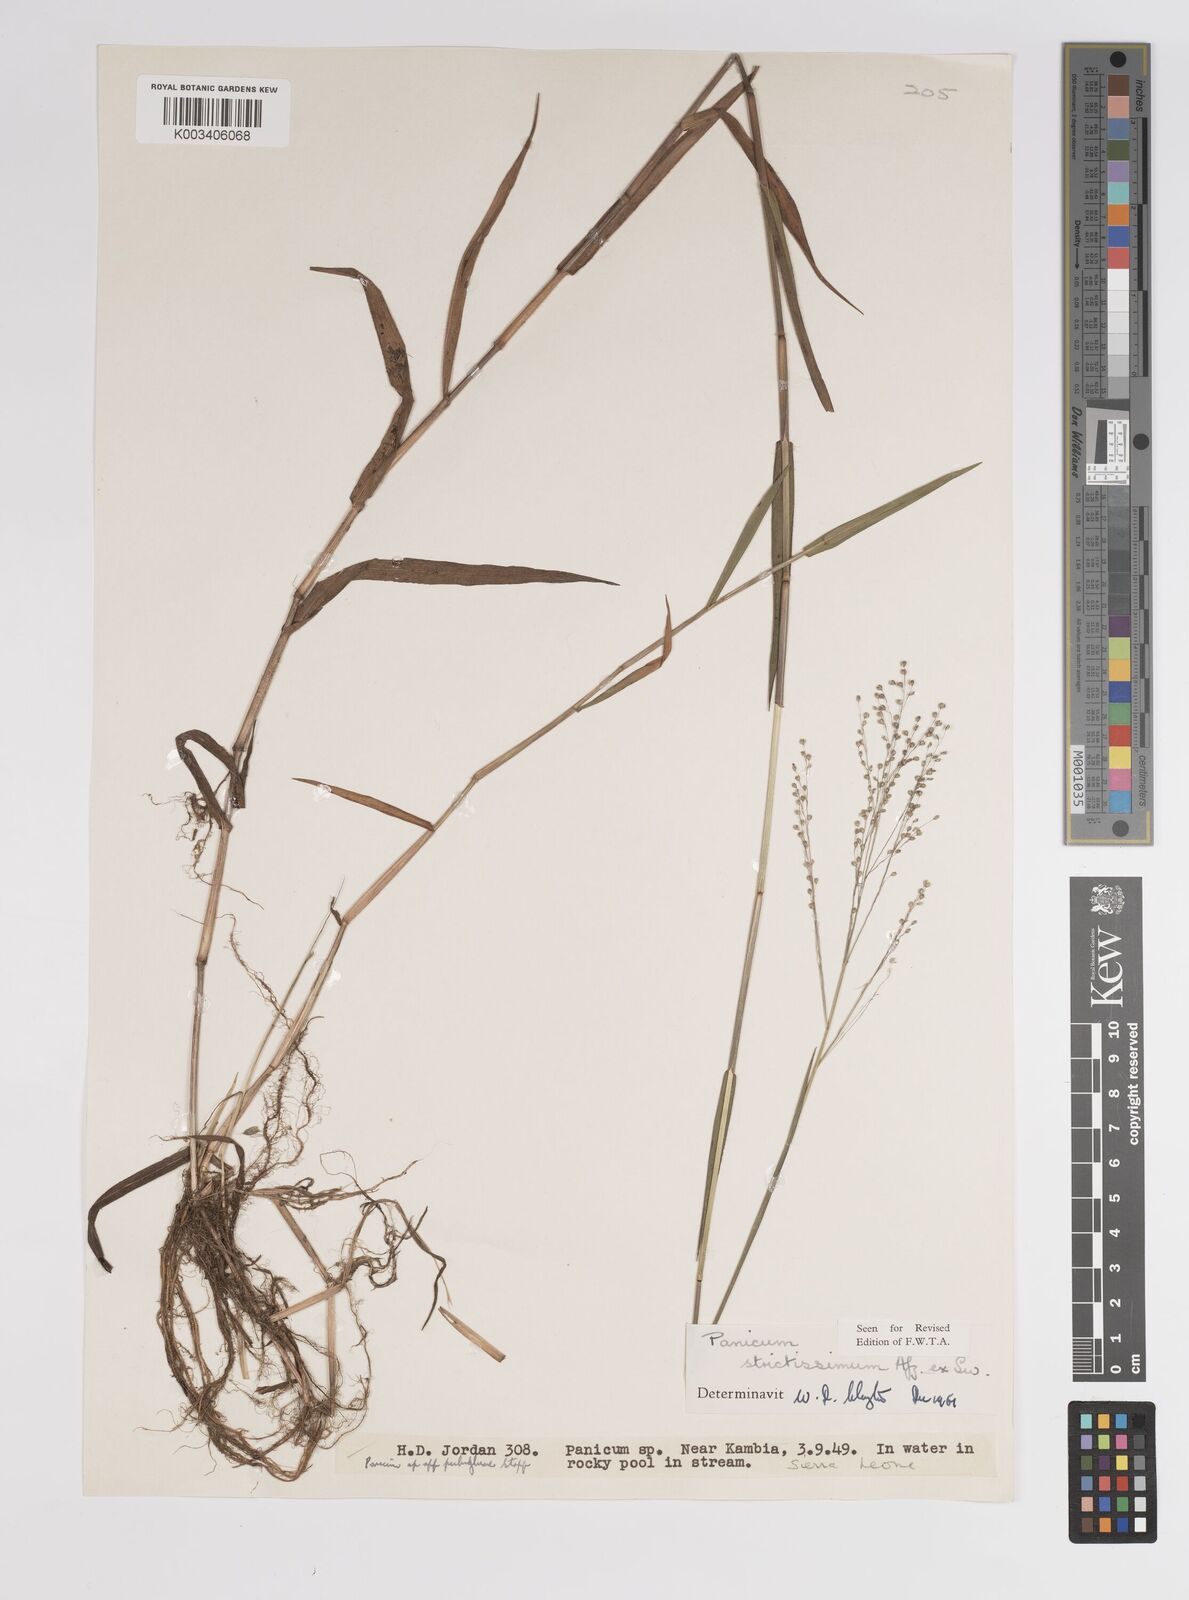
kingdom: Plantae
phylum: Tracheophyta
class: Liliopsida
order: Poales
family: Poaceae
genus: Panicum
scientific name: Panicum eickii
